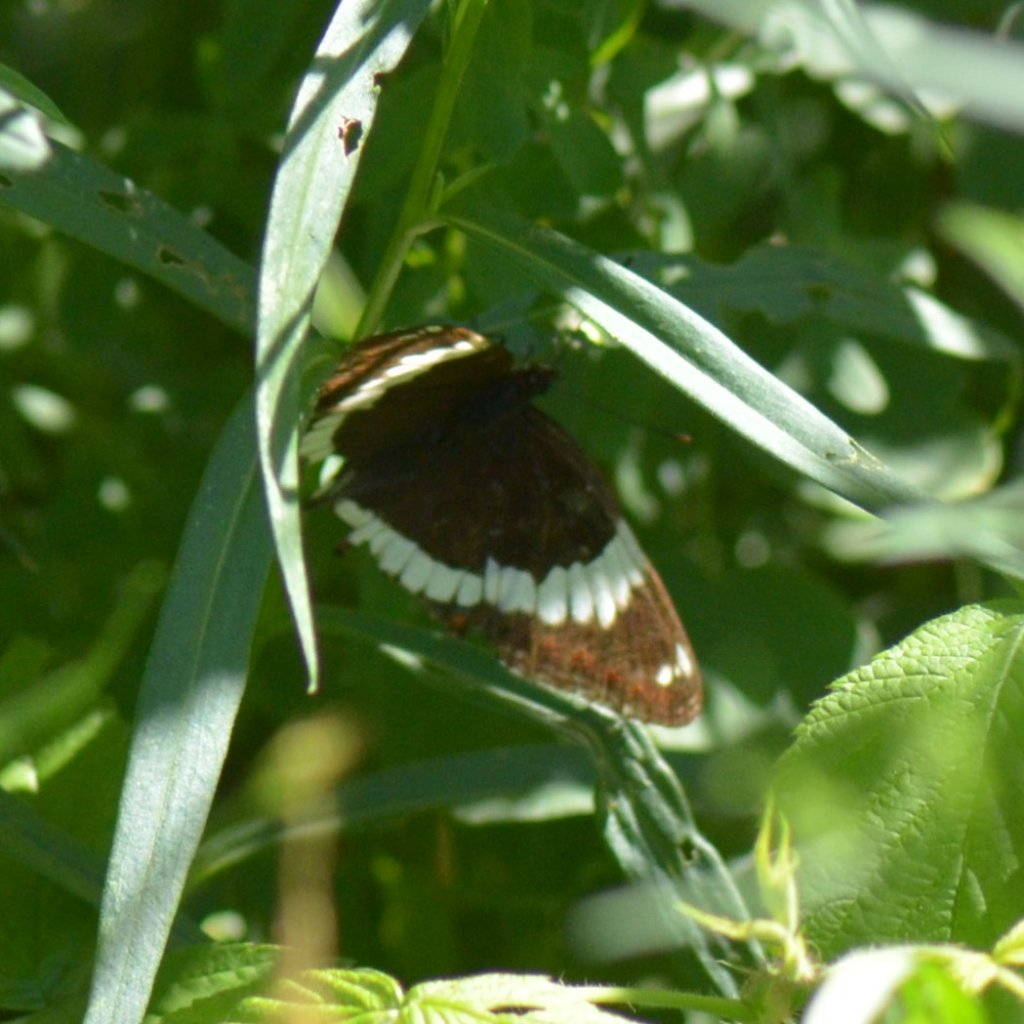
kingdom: Animalia
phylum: Arthropoda
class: Insecta
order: Lepidoptera
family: Nymphalidae
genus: Limenitis
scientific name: Limenitis arthemis
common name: Red-spotted Admiral
